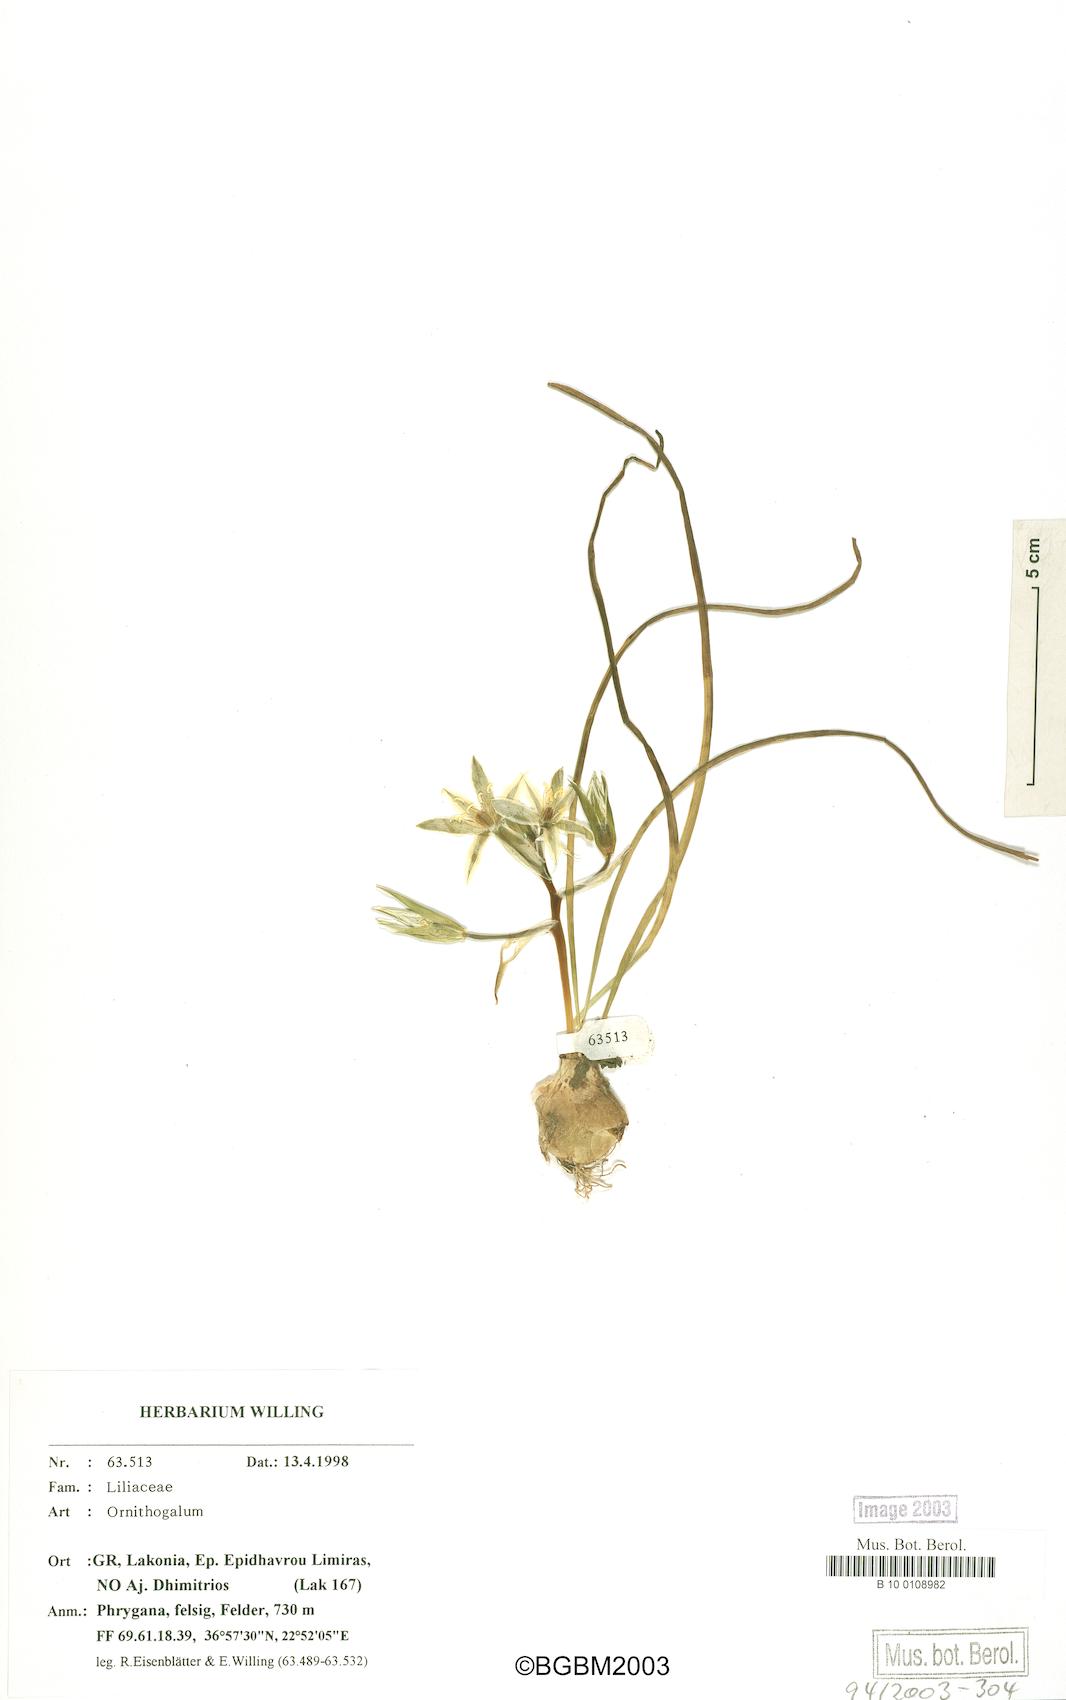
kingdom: Plantae
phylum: Tracheophyta
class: Liliopsida
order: Asparagales
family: Asparagaceae
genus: Ornithogalum
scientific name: Ornithogalum
